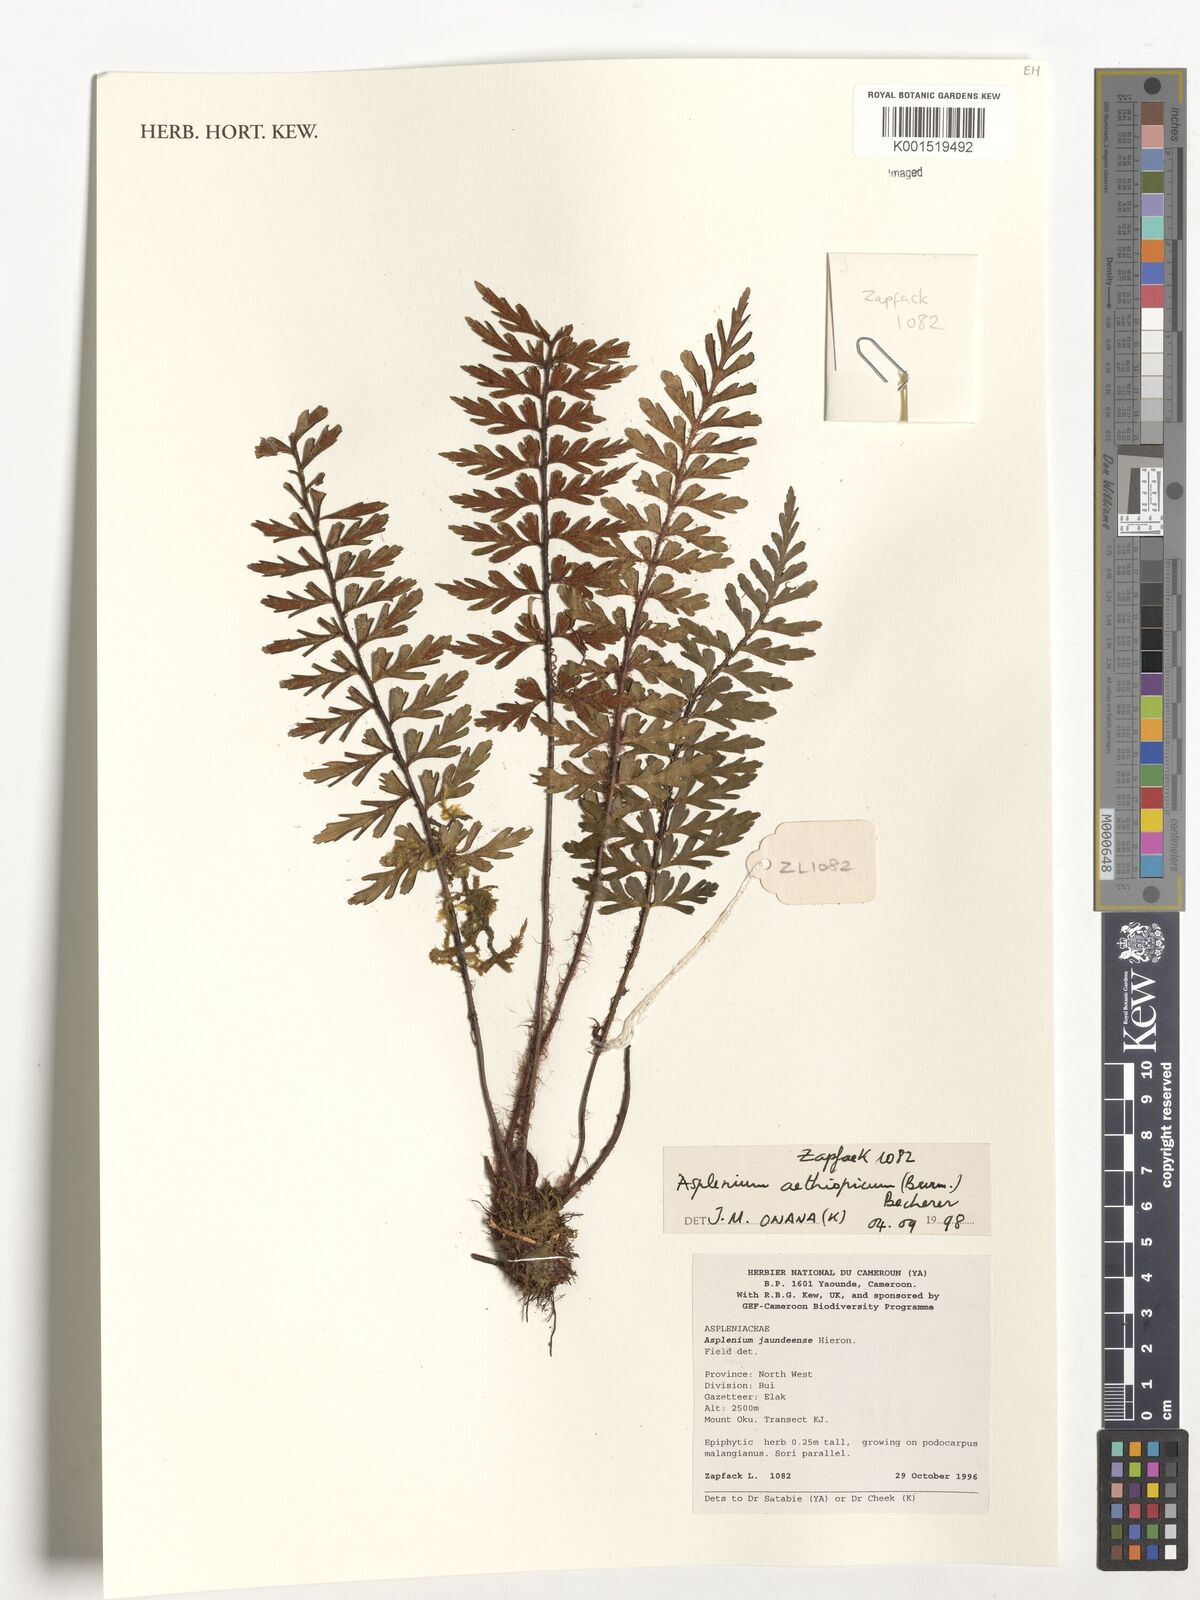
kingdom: Plantae
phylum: Tracheophyta
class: Polypodiopsida
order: Polypodiales
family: Aspleniaceae
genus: Asplenium
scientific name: Asplenium aethiopicum
